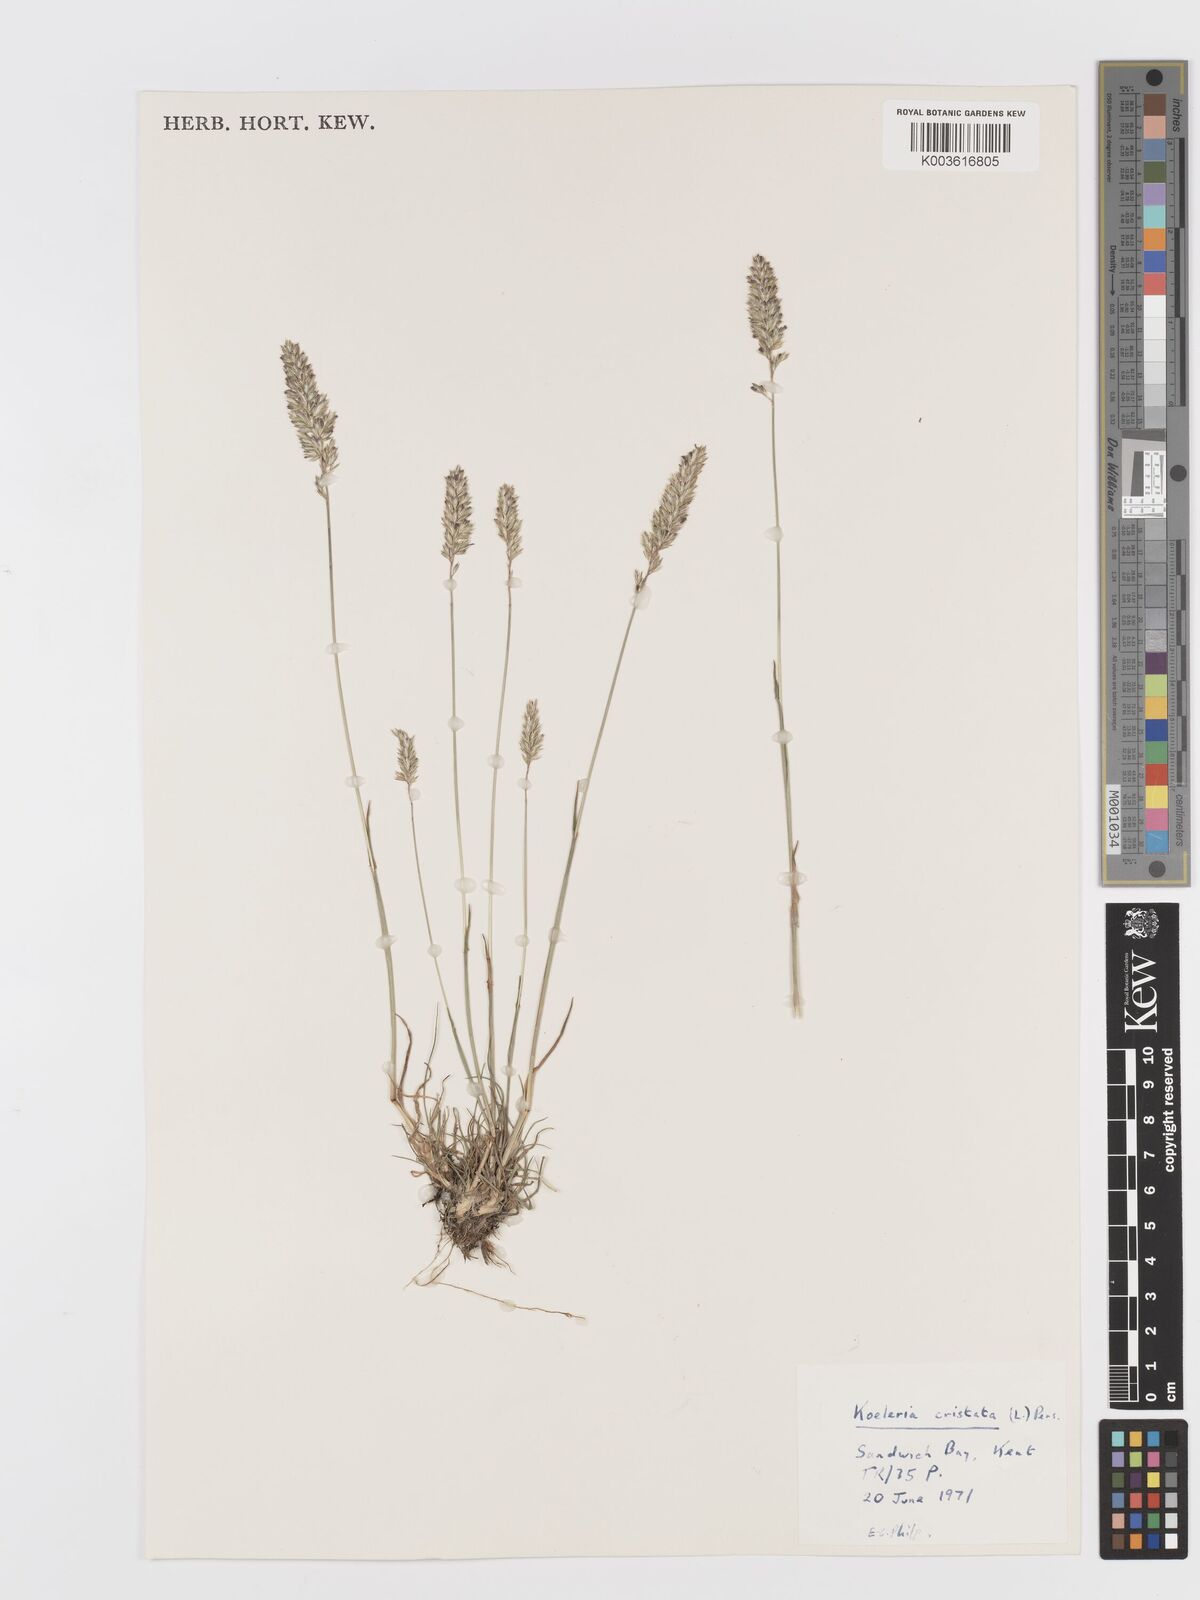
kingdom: Plantae
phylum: Tracheophyta
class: Liliopsida
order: Poales
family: Poaceae
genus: Koeleria
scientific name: Koeleria macrantha
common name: Crested hair-grass
